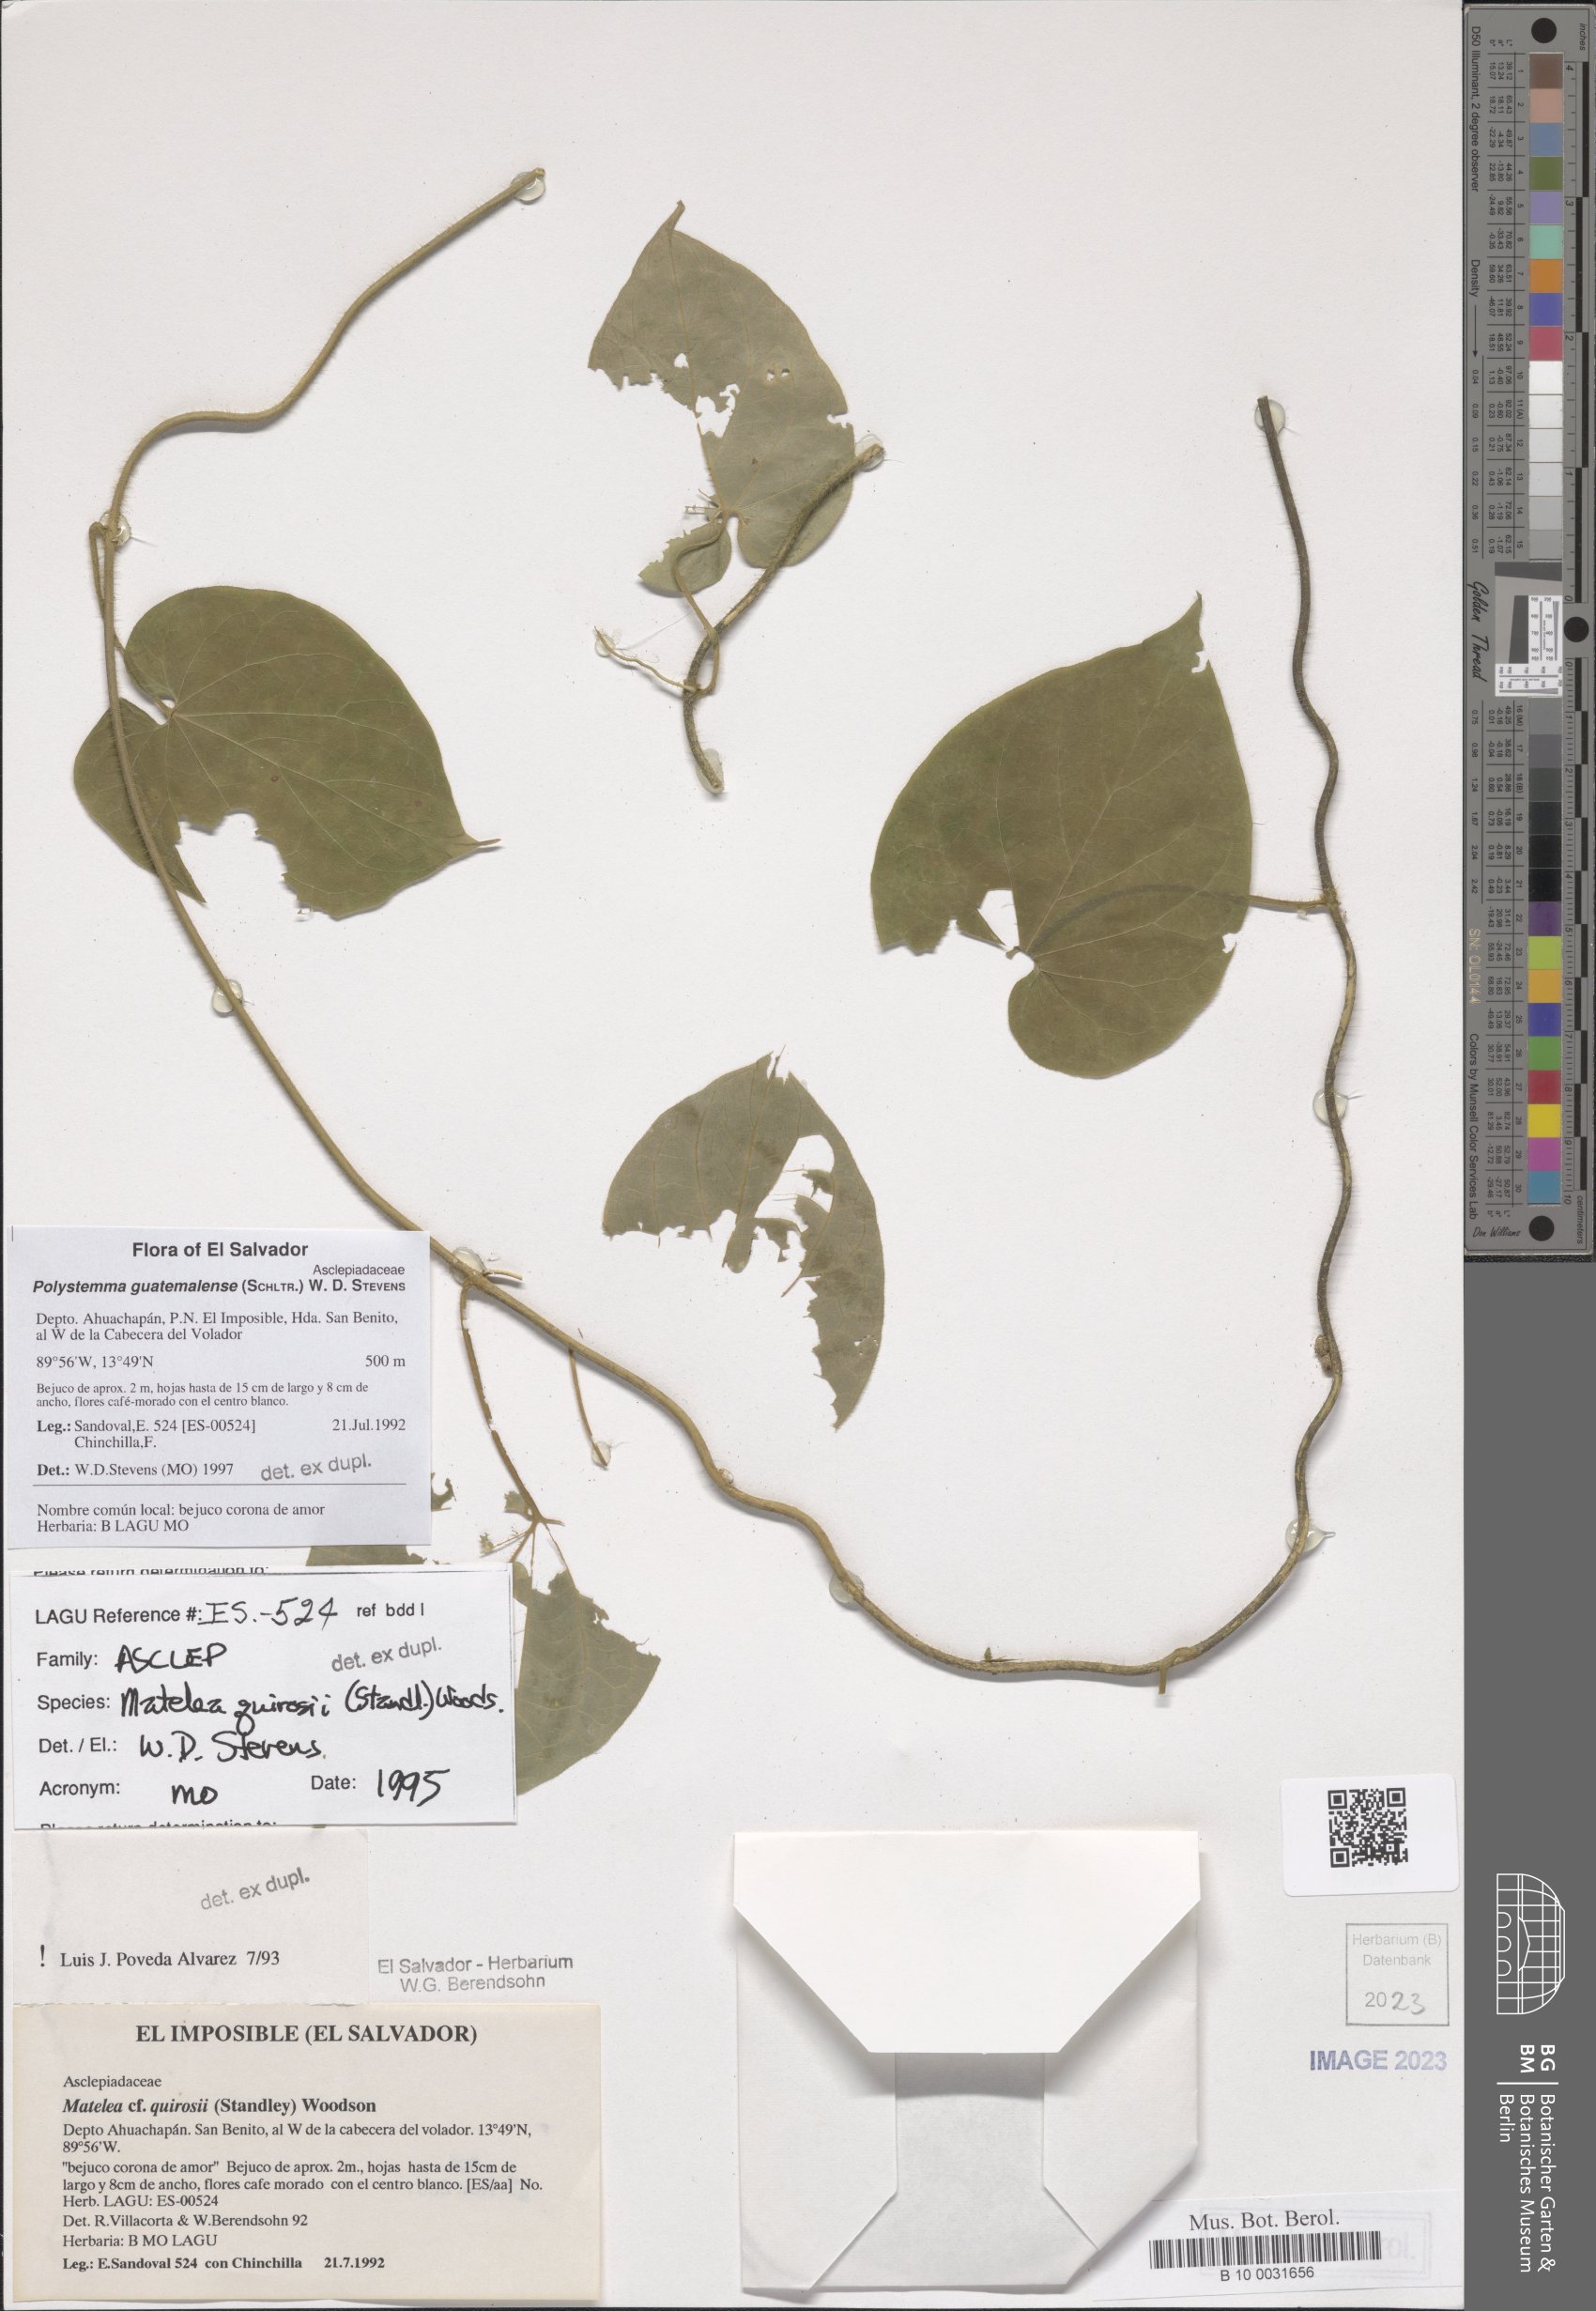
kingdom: Plantae
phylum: Tracheophyta
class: Magnoliopsida
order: Gentianales
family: Apocynaceae
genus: Polystemma
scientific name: Polystemma guatemalense
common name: Arborescente rattan
